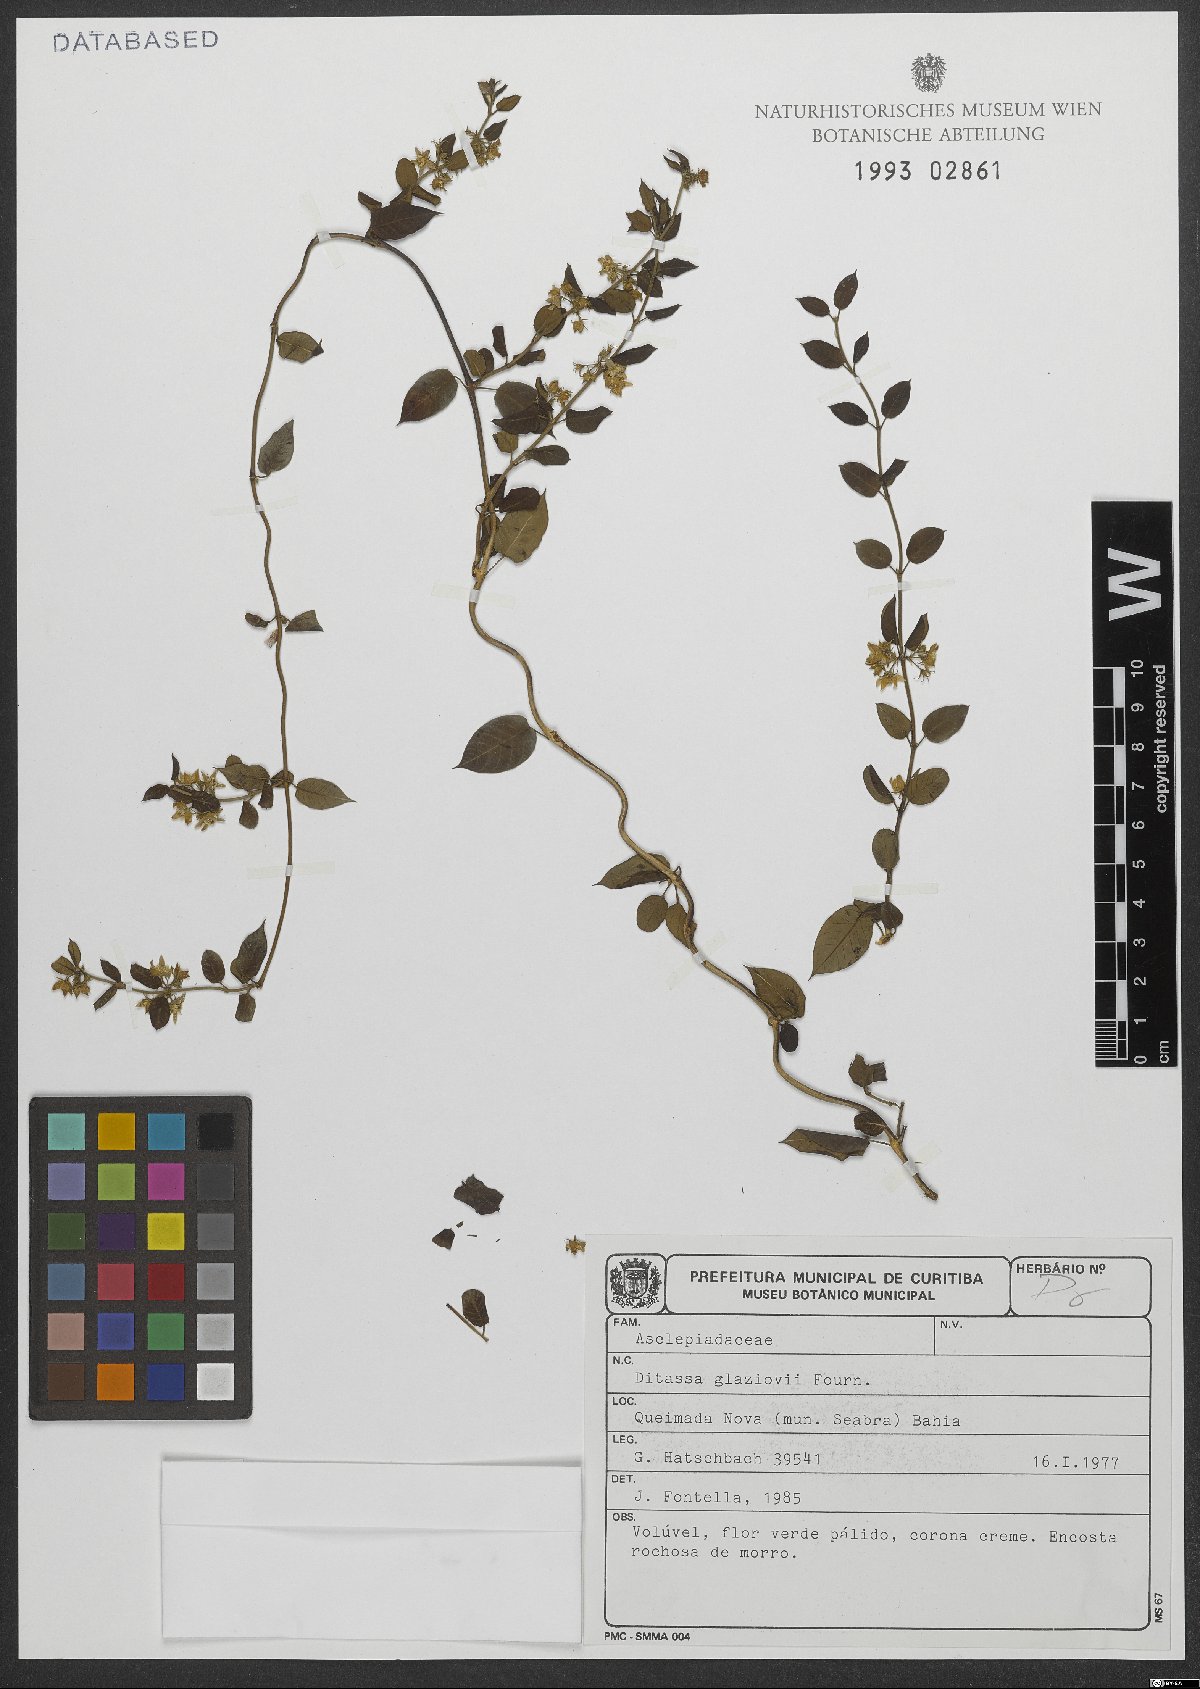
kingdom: Plantae
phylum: Tracheophyta
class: Magnoliopsida
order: Gentianales
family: Apocynaceae
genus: Ditassa
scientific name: Ditassa glaziovi
